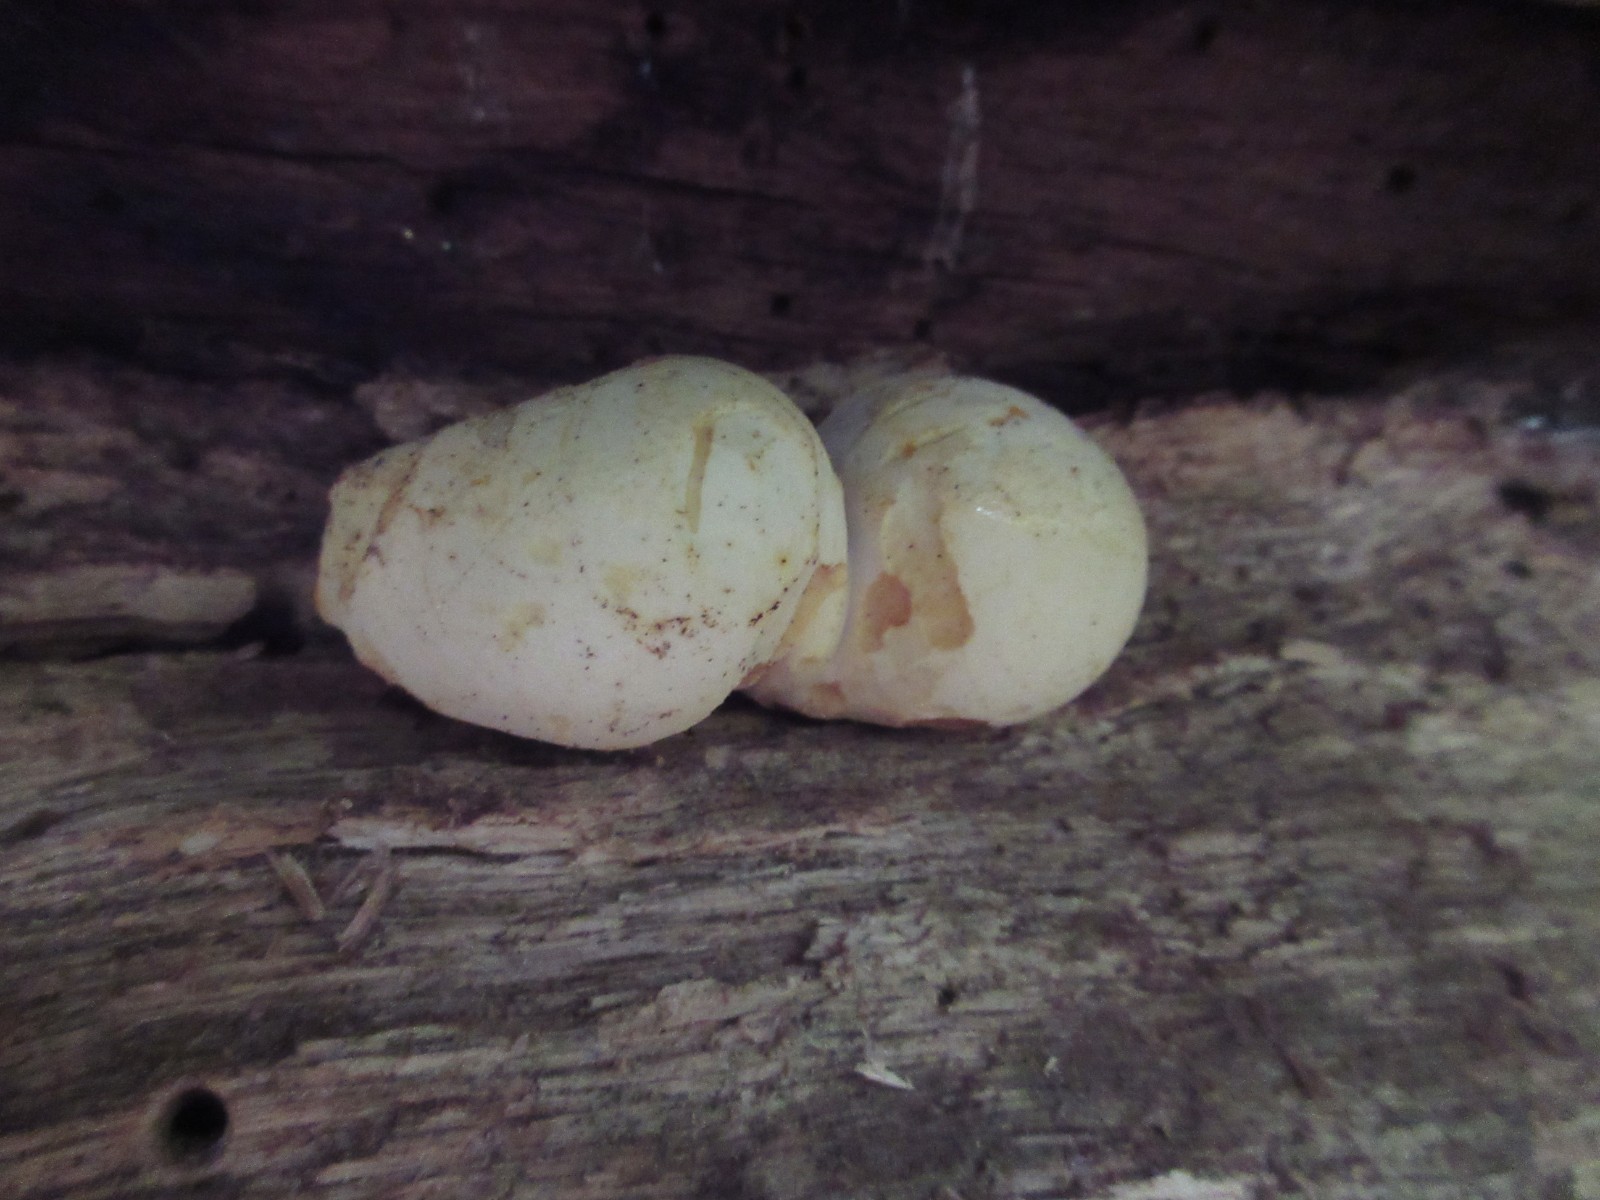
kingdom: Fungi
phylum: Basidiomycota
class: Agaricomycetes
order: Polyporales
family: Fomitopsidaceae
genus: Buglossoporus
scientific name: Buglossoporus quercinus
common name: egetunge
